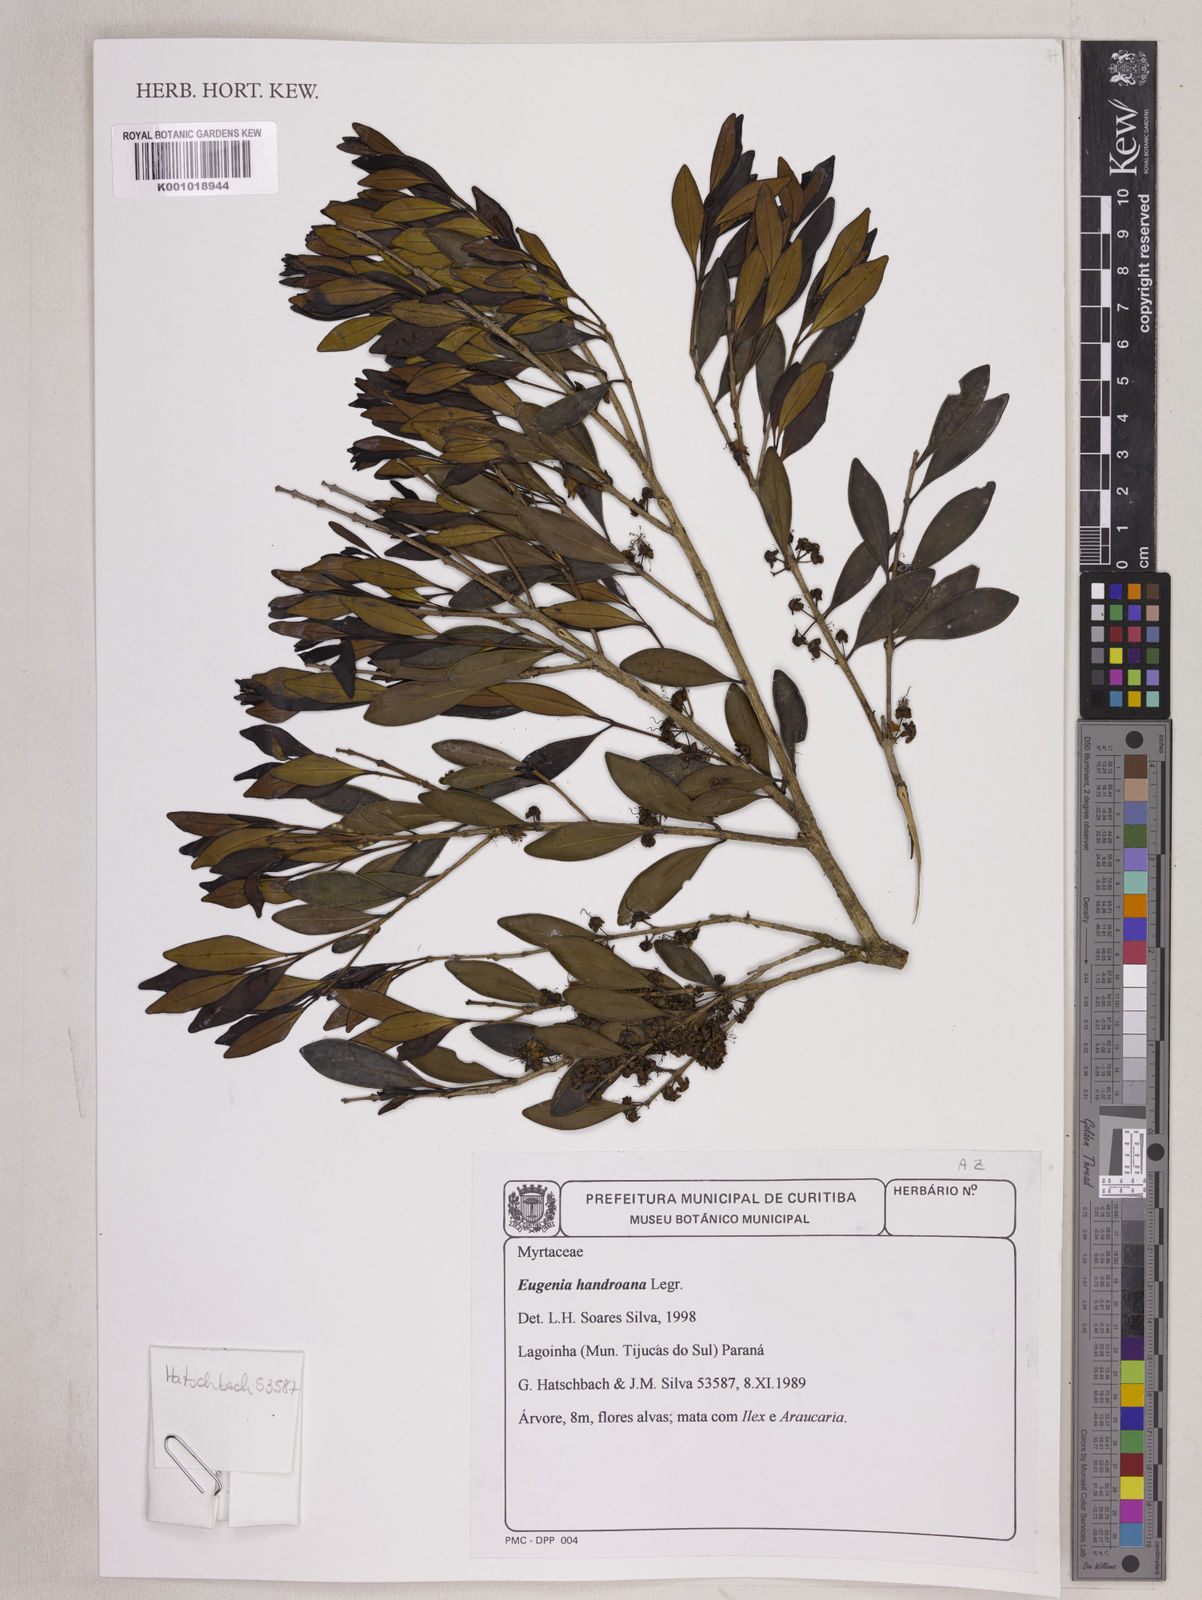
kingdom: Plantae
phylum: Tracheophyta
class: Magnoliopsida
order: Myrtales
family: Myrtaceae
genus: Eugenia
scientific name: Eugenia handroana
